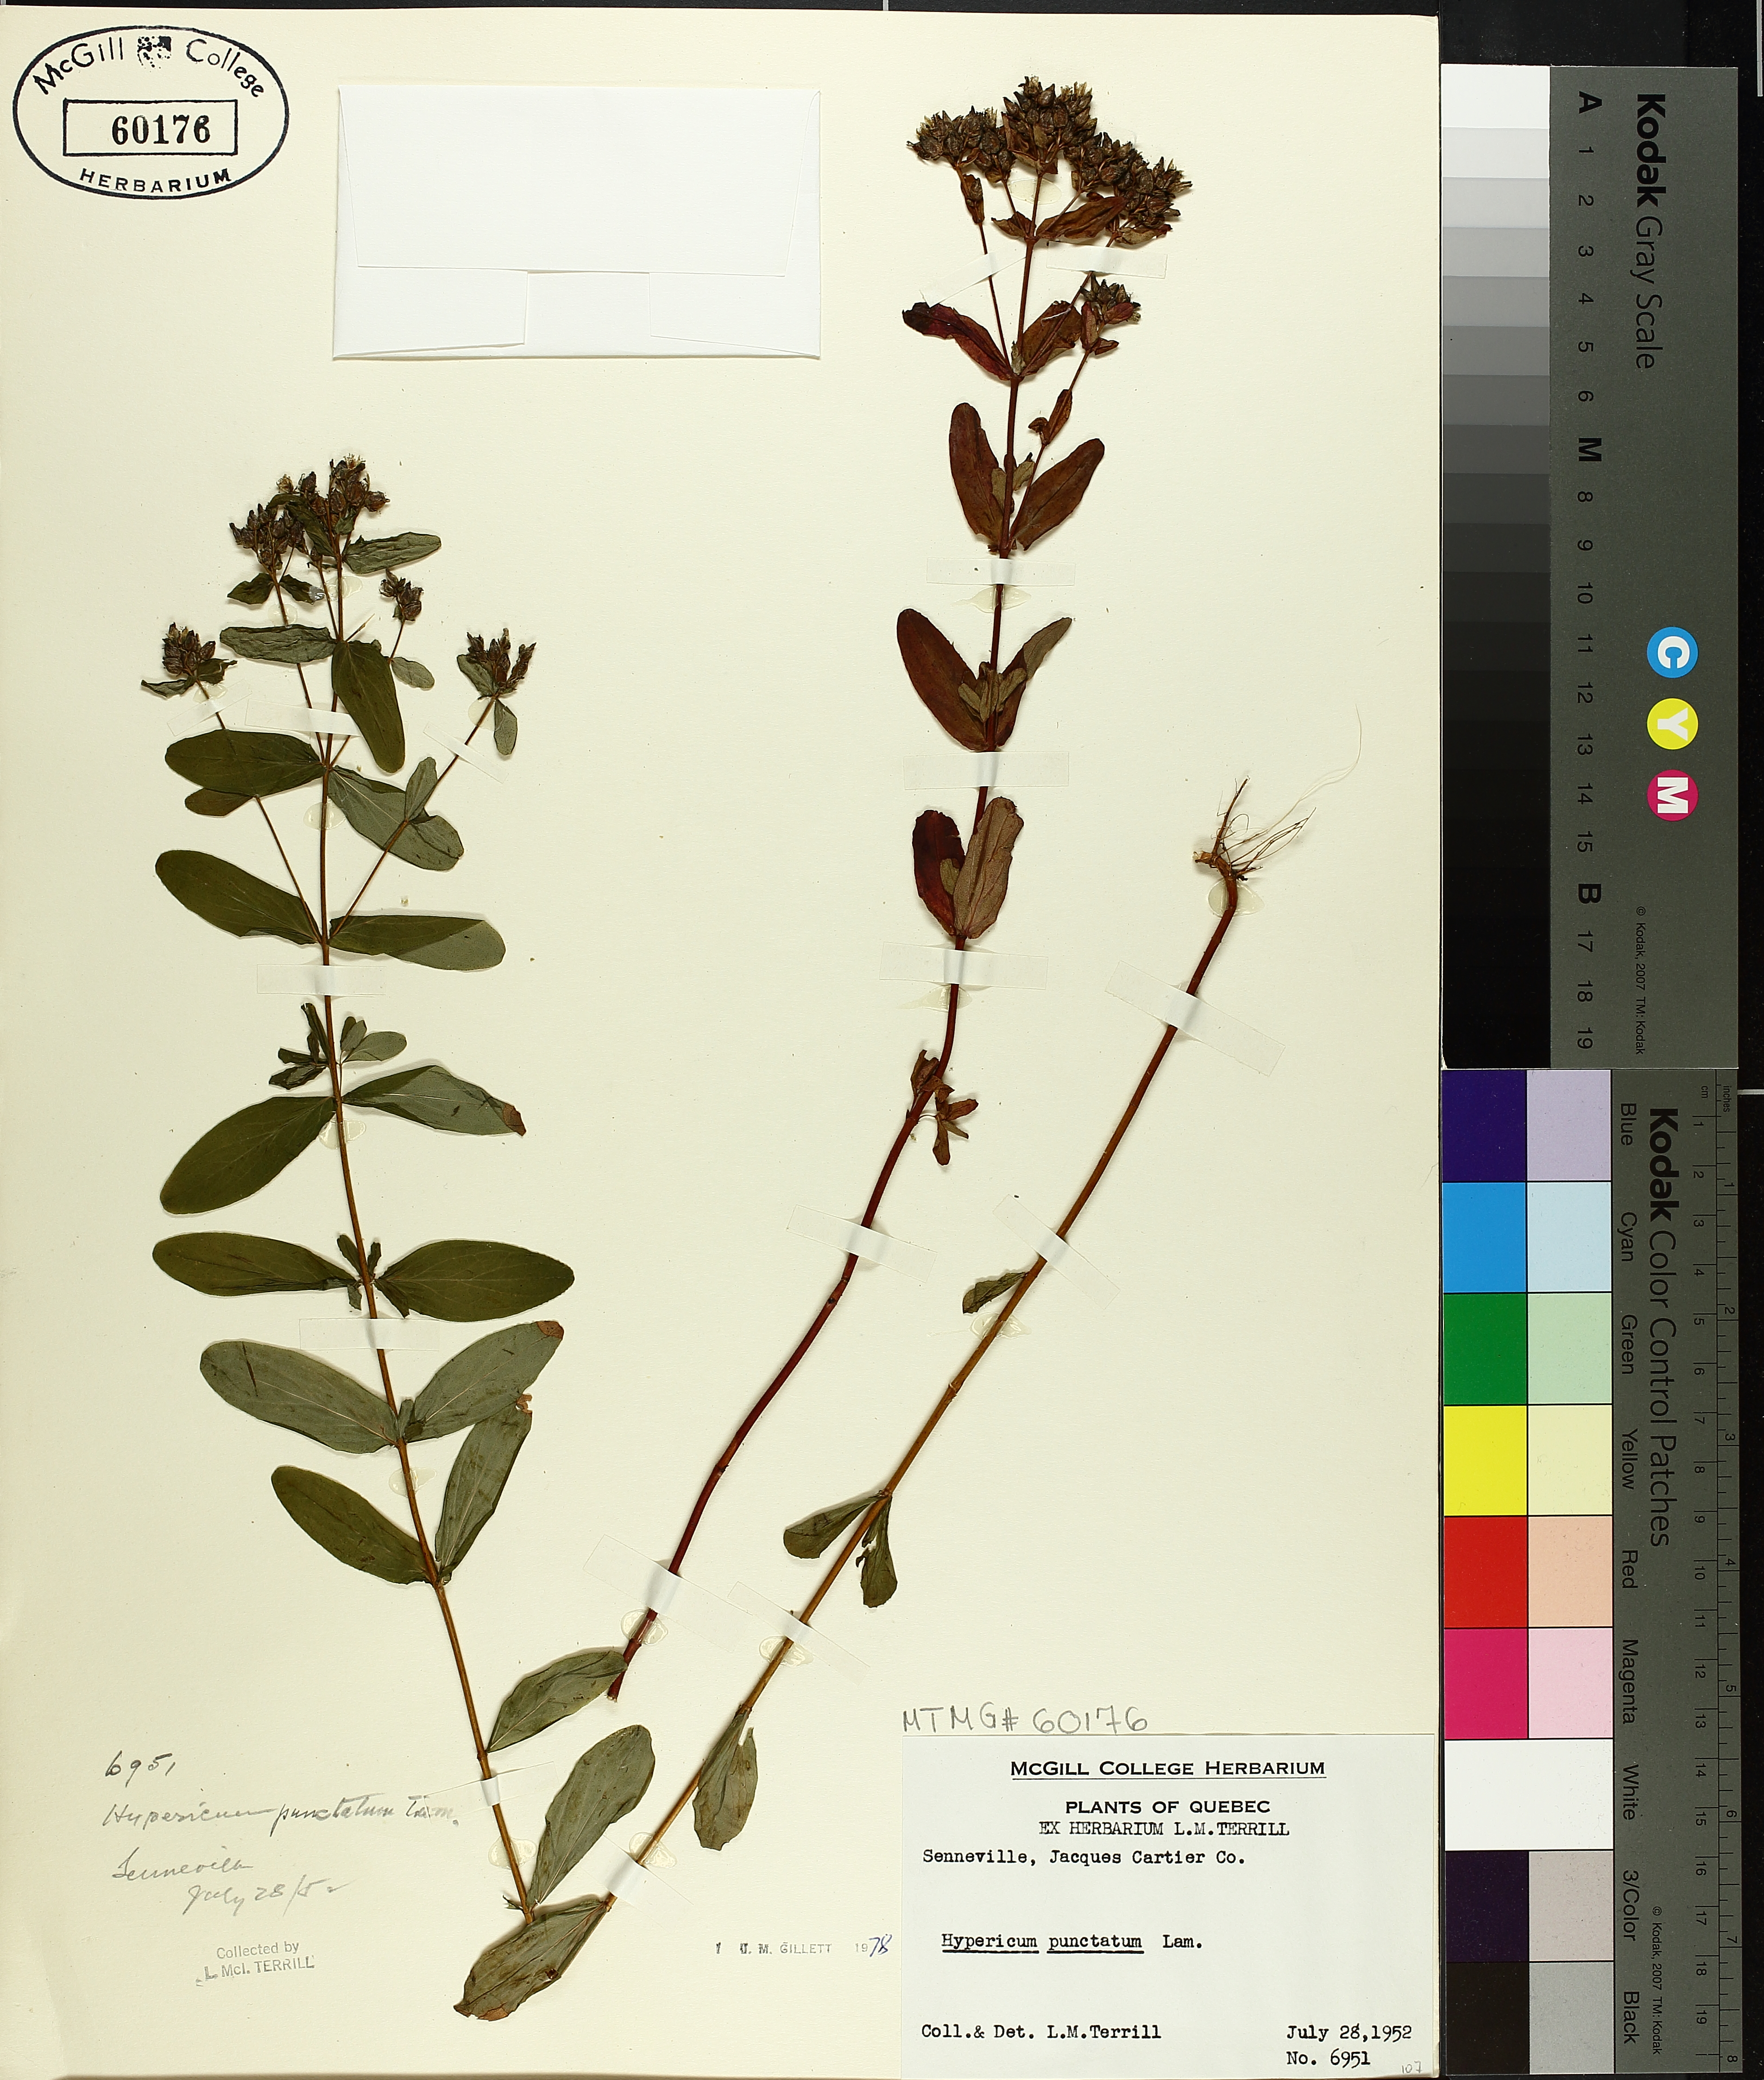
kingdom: Plantae
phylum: Tracheophyta
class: Magnoliopsida
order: Malpighiales
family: Hypericaceae
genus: Hypericum
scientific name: Hypericum punctatum
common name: Spotted st. john's-wort
